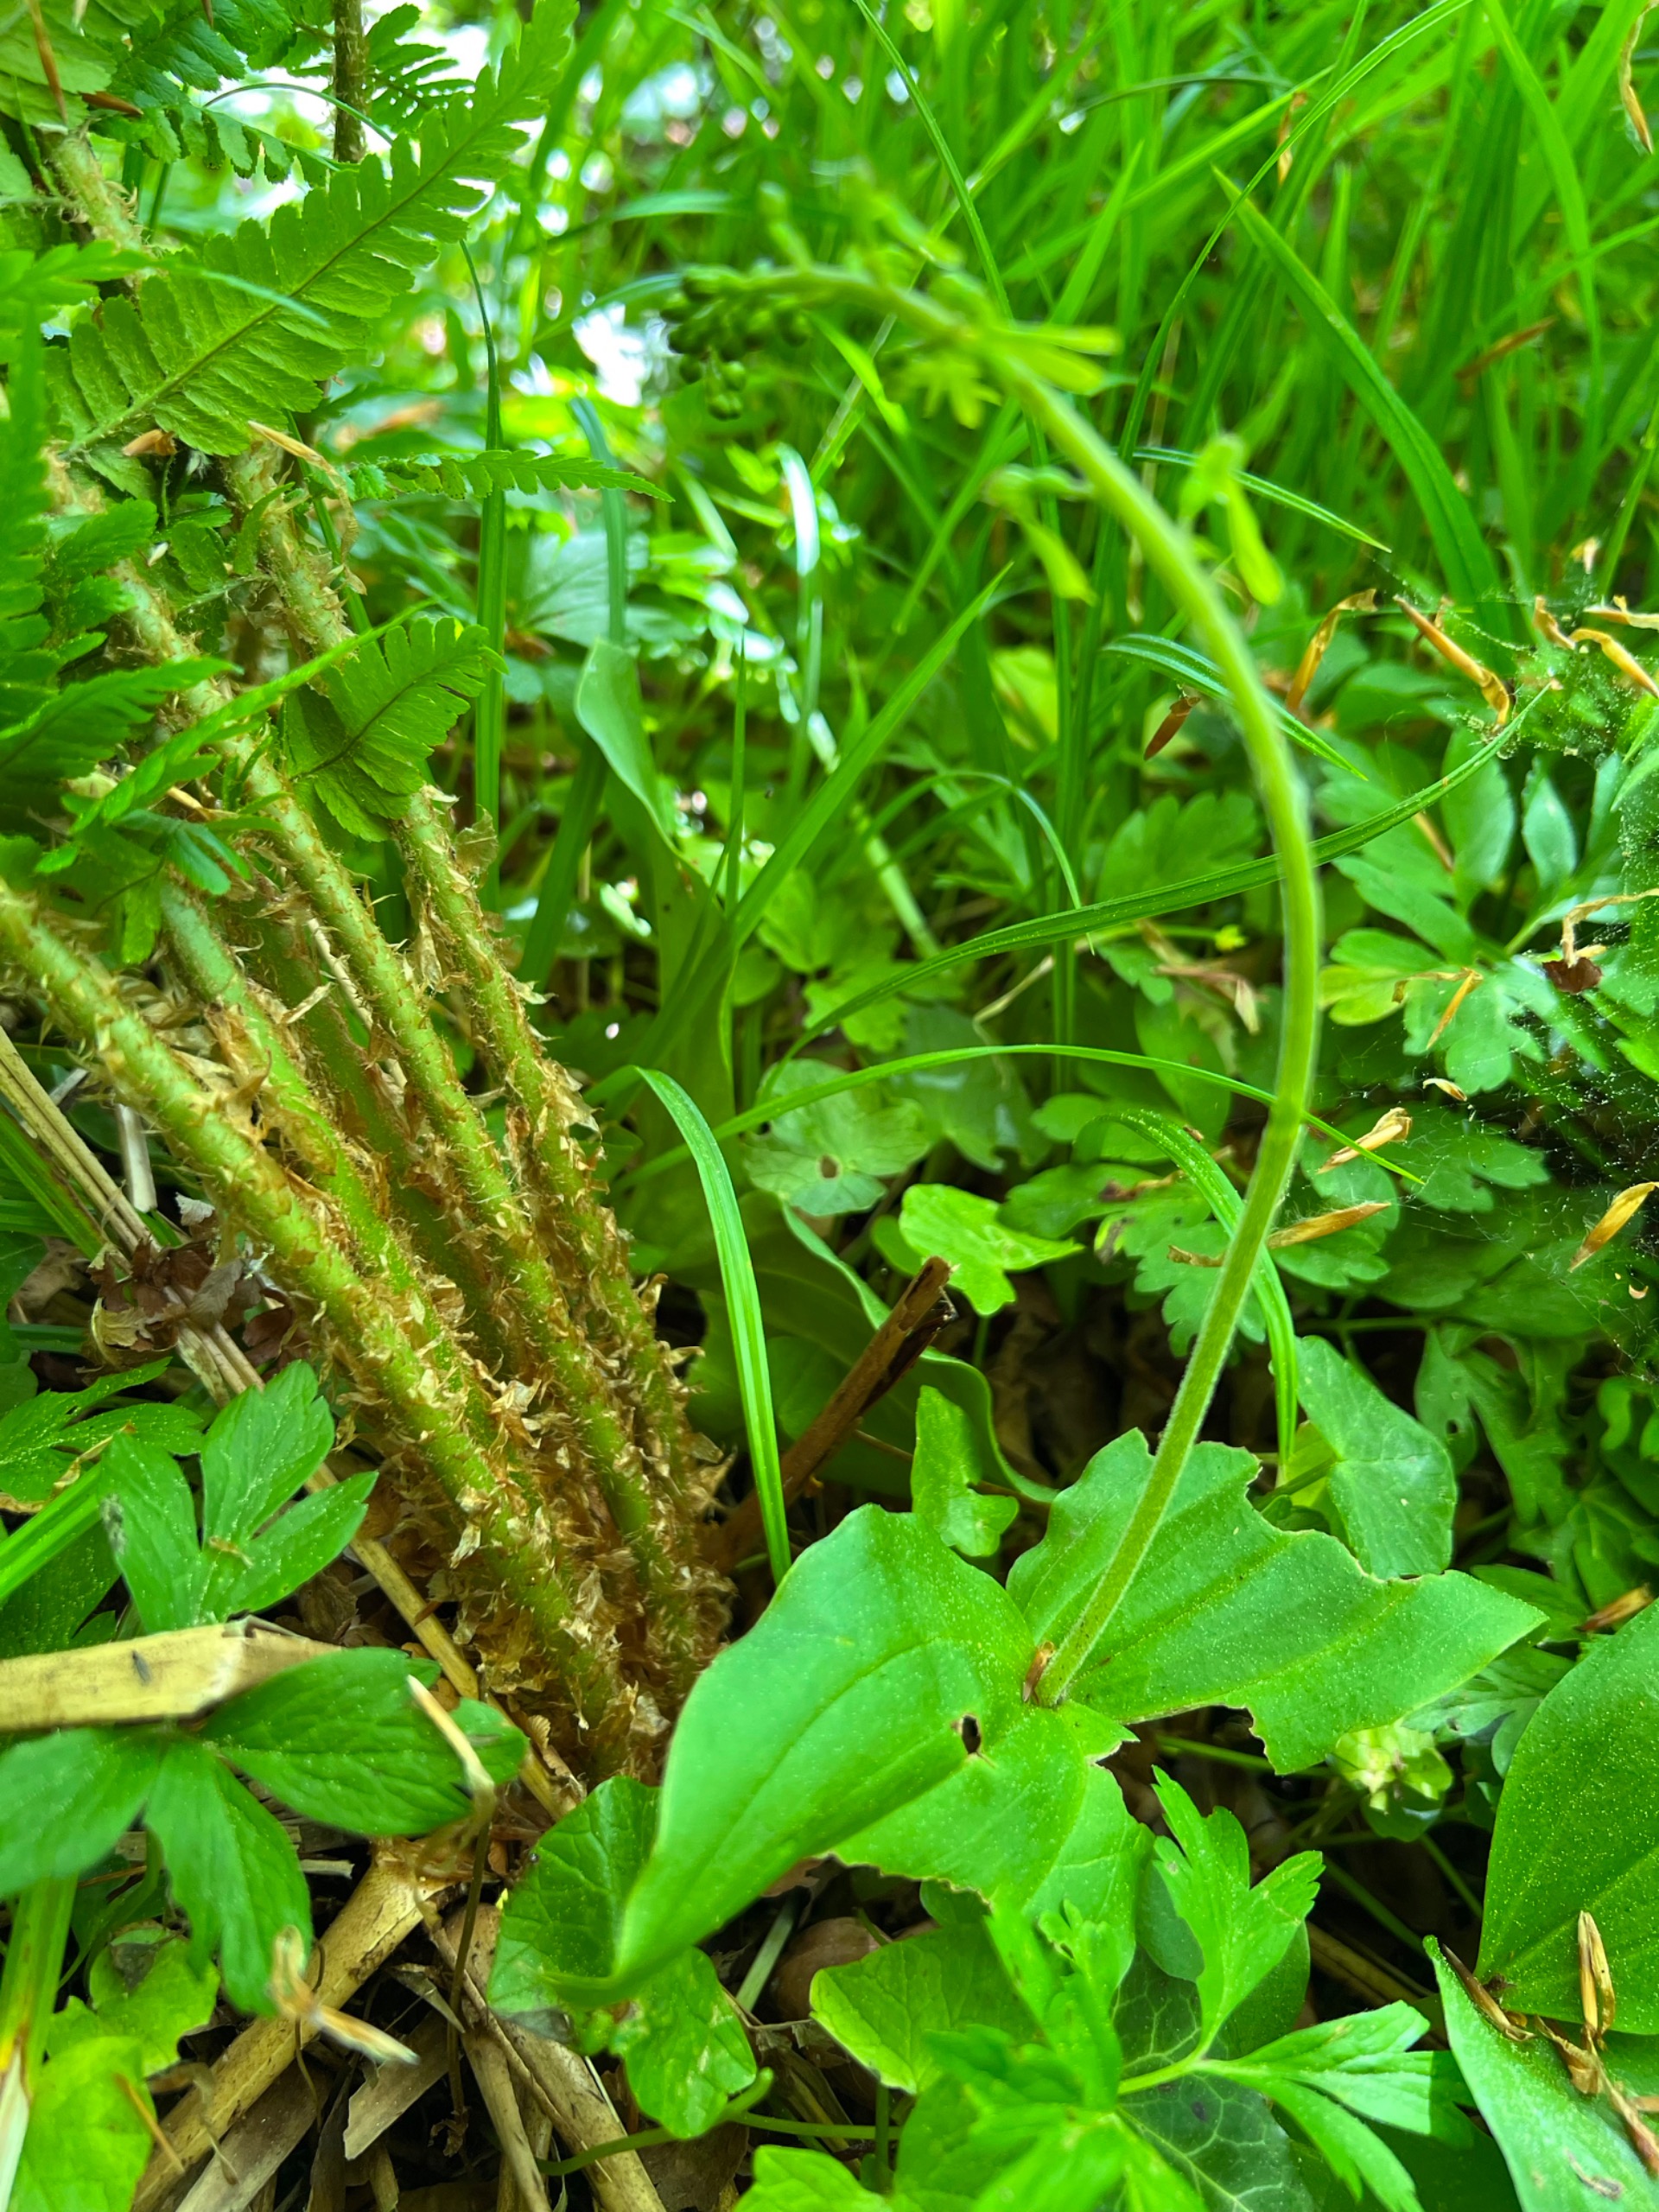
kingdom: Plantae
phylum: Tracheophyta
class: Liliopsida
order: Asparagales
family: Orchidaceae
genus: Neottia
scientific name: Neottia ovata
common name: Ægbladet fliglæbe
